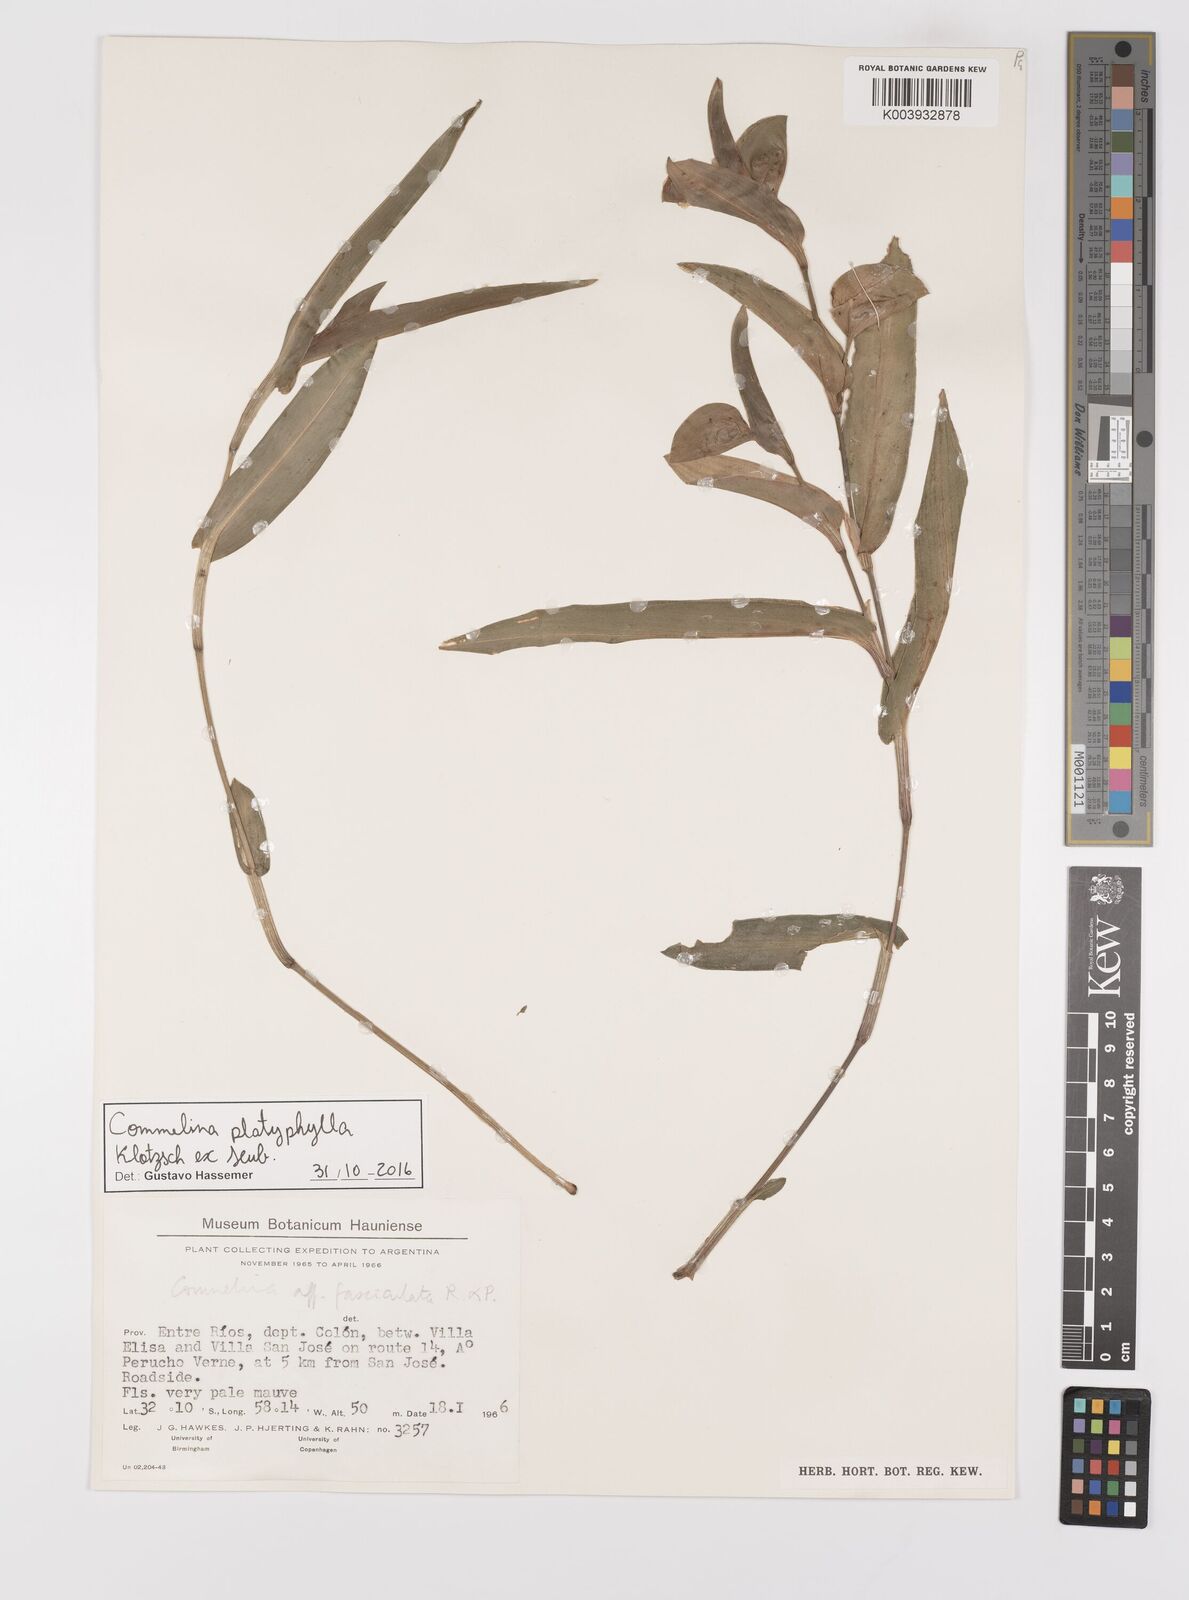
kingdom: Plantae
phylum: Tracheophyta
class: Liliopsida
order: Commelinales
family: Commelinaceae
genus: Commelina
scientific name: Commelina platyphylla
